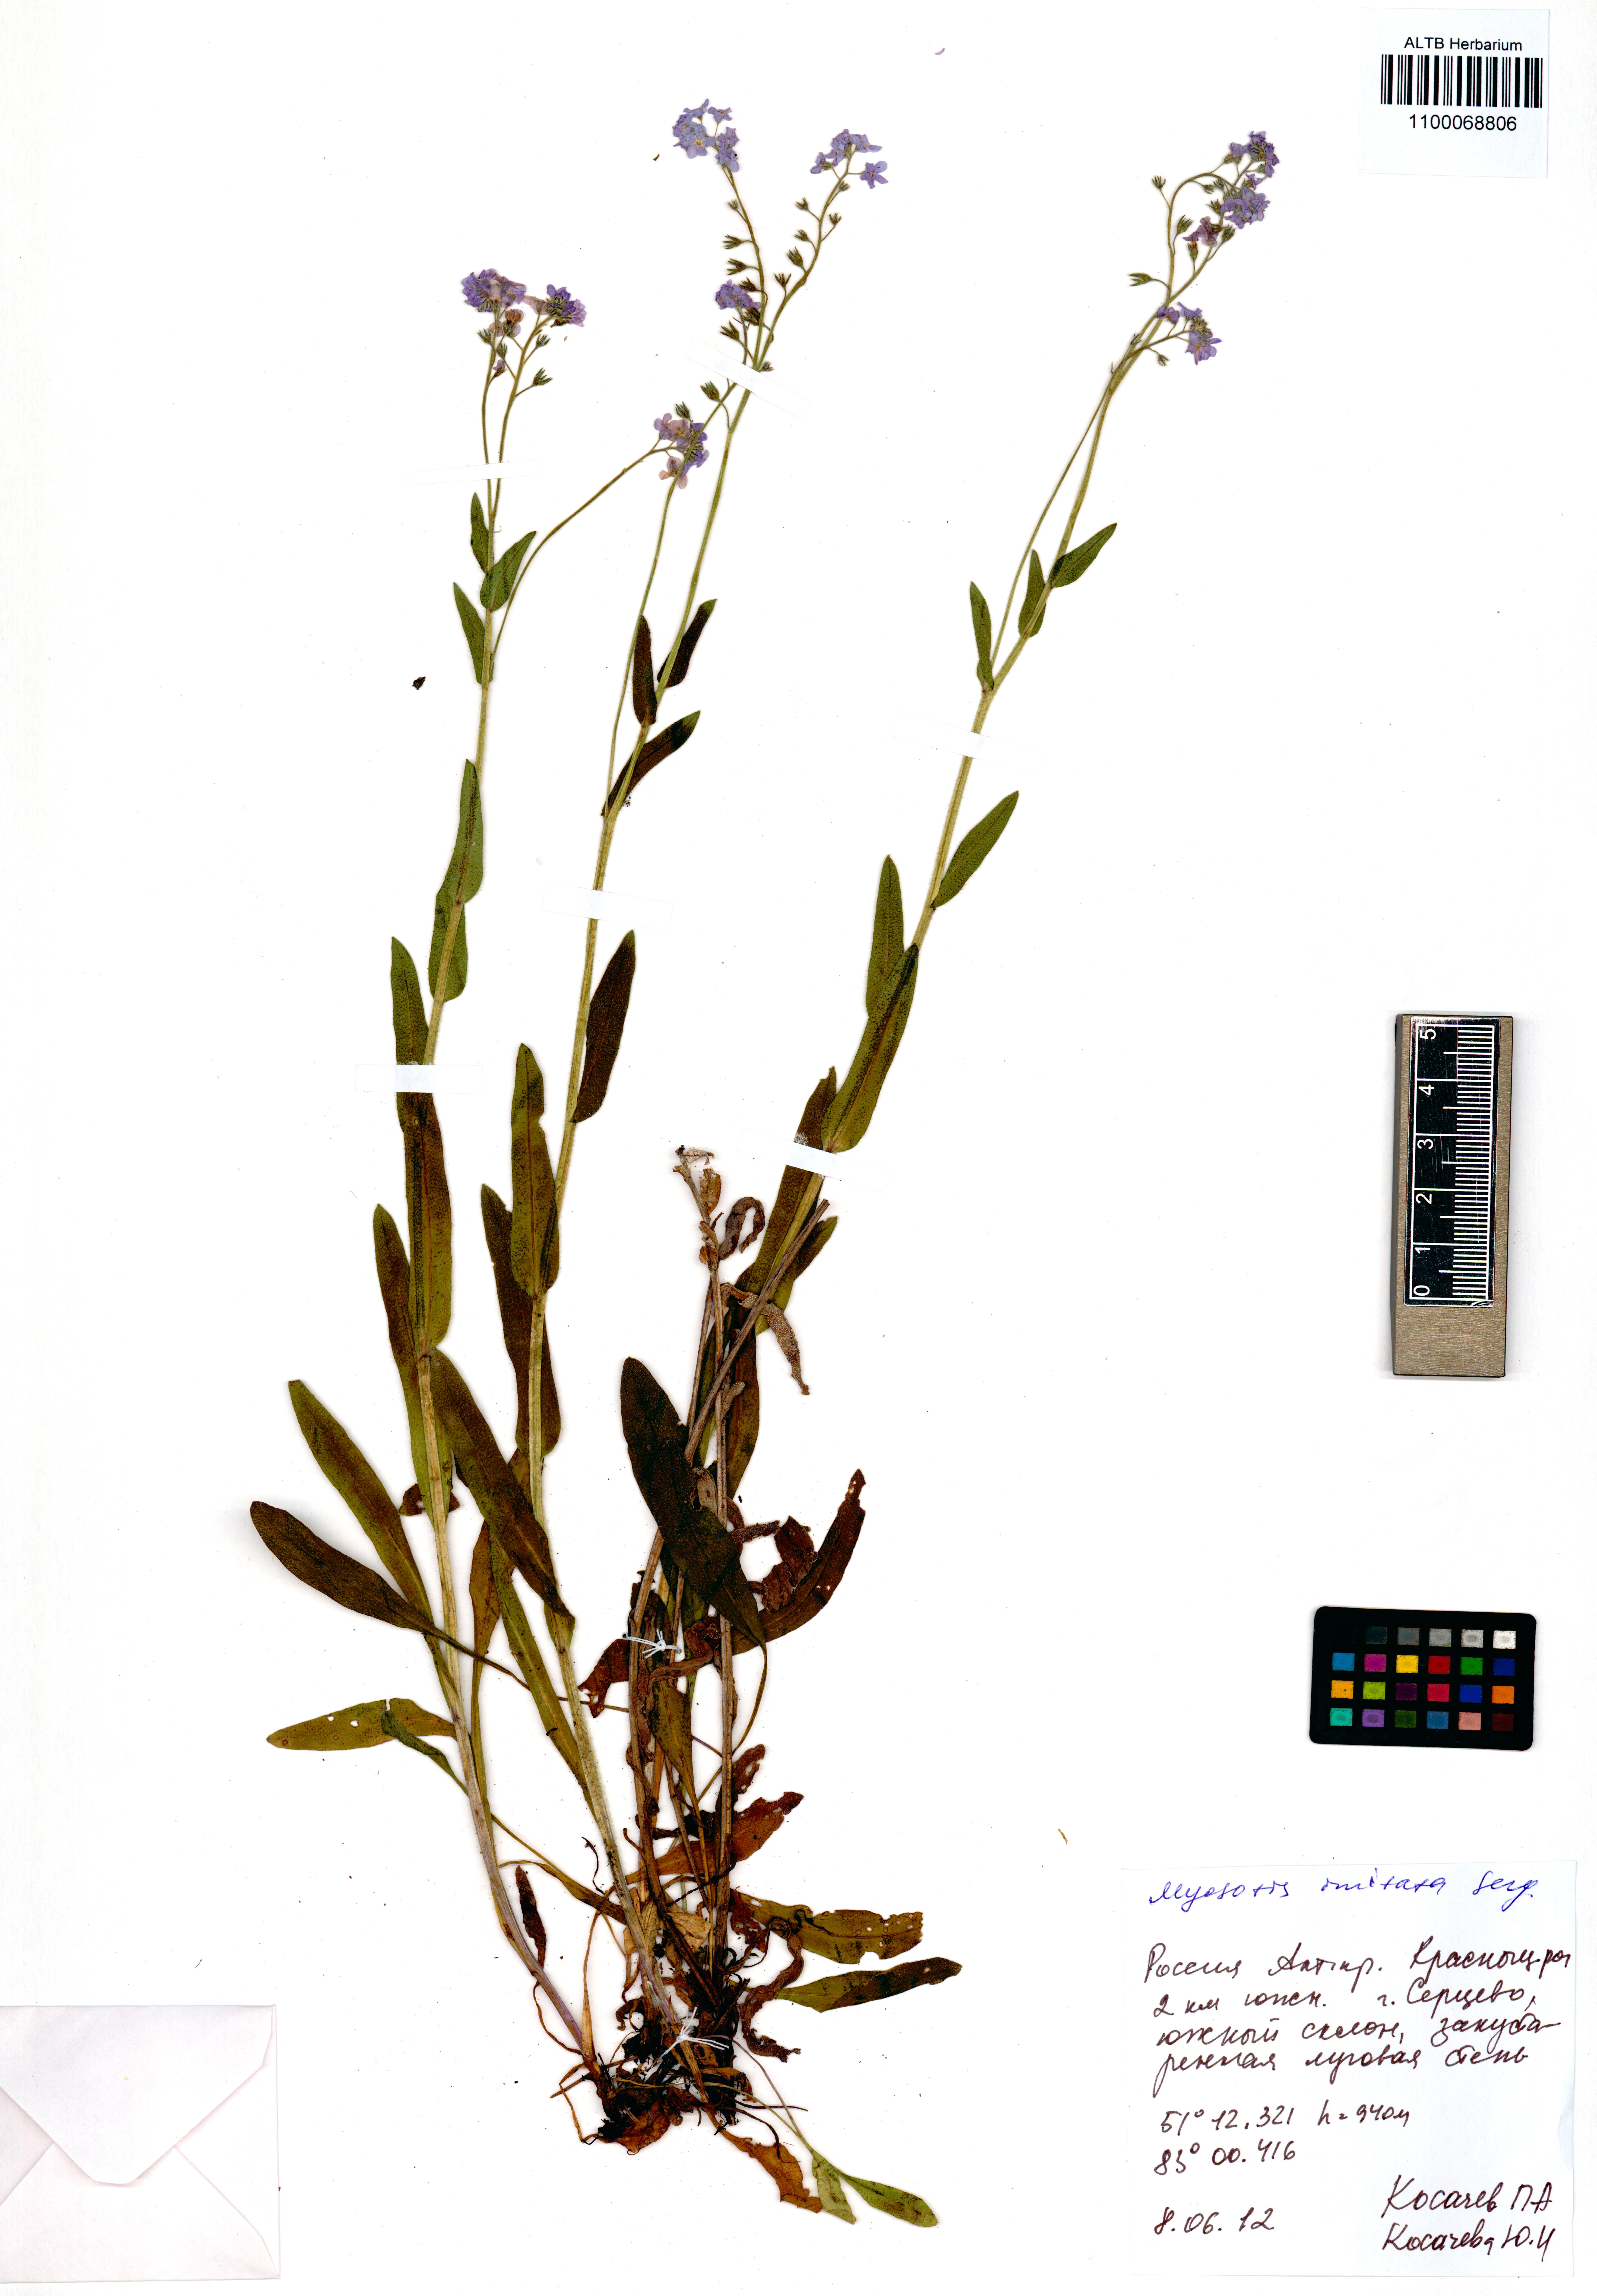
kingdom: Plantae
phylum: Tracheophyta
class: Magnoliopsida
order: Boraginales
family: Boraginaceae
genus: Myosotis
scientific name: Myosotis imitata
